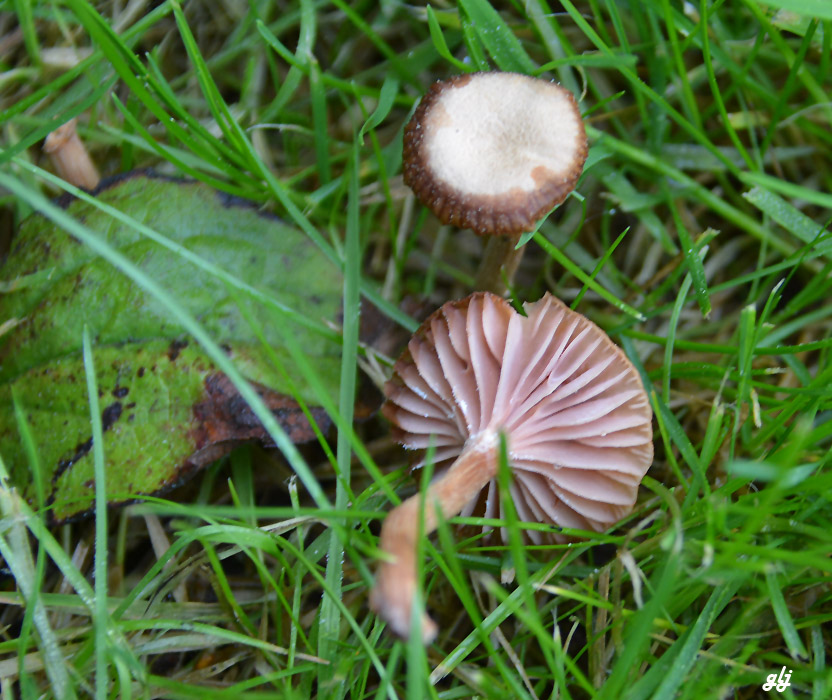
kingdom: Fungi
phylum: Basidiomycota
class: Agaricomycetes
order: Agaricales
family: Hydnangiaceae
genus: Laccaria
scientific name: Laccaria laccata
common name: rød ametysthat
